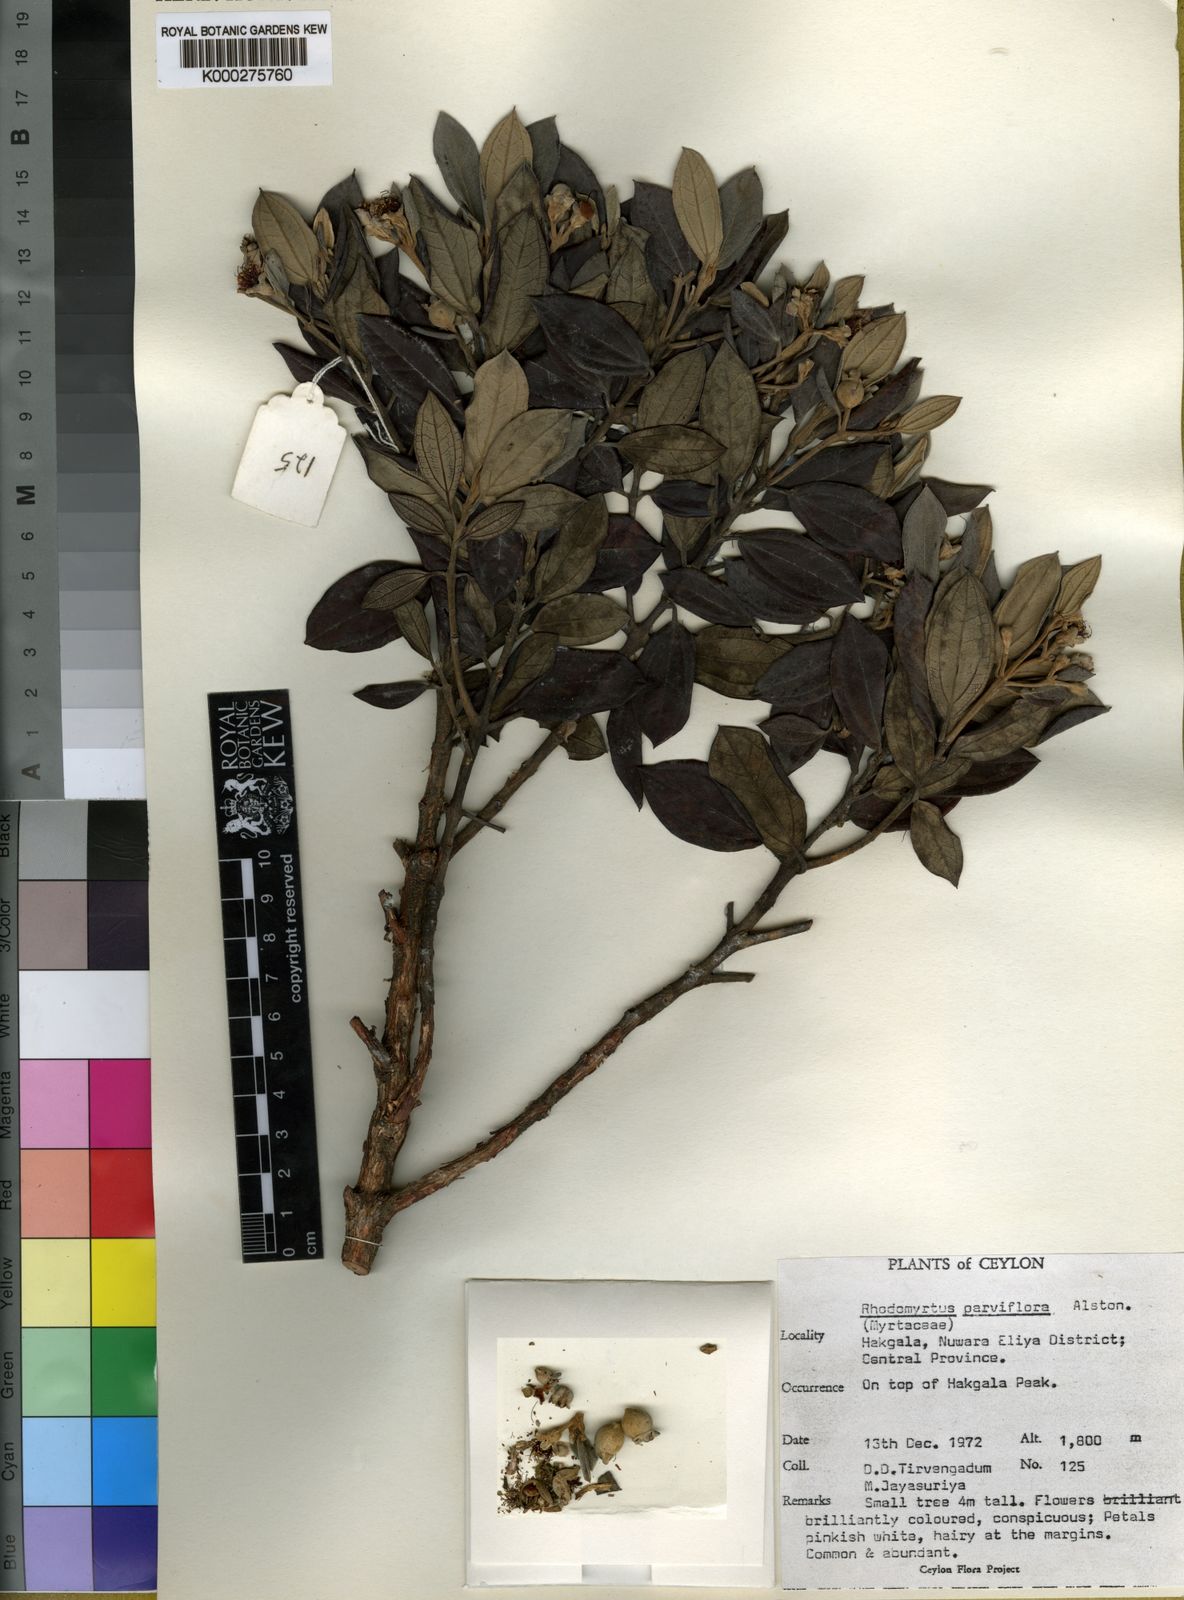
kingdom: Plantae
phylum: Tracheophyta
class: Magnoliopsida
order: Myrtales
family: Myrtaceae
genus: Rhodomyrtus
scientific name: Rhodomyrtus tomentosa
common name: Rose myrtle
